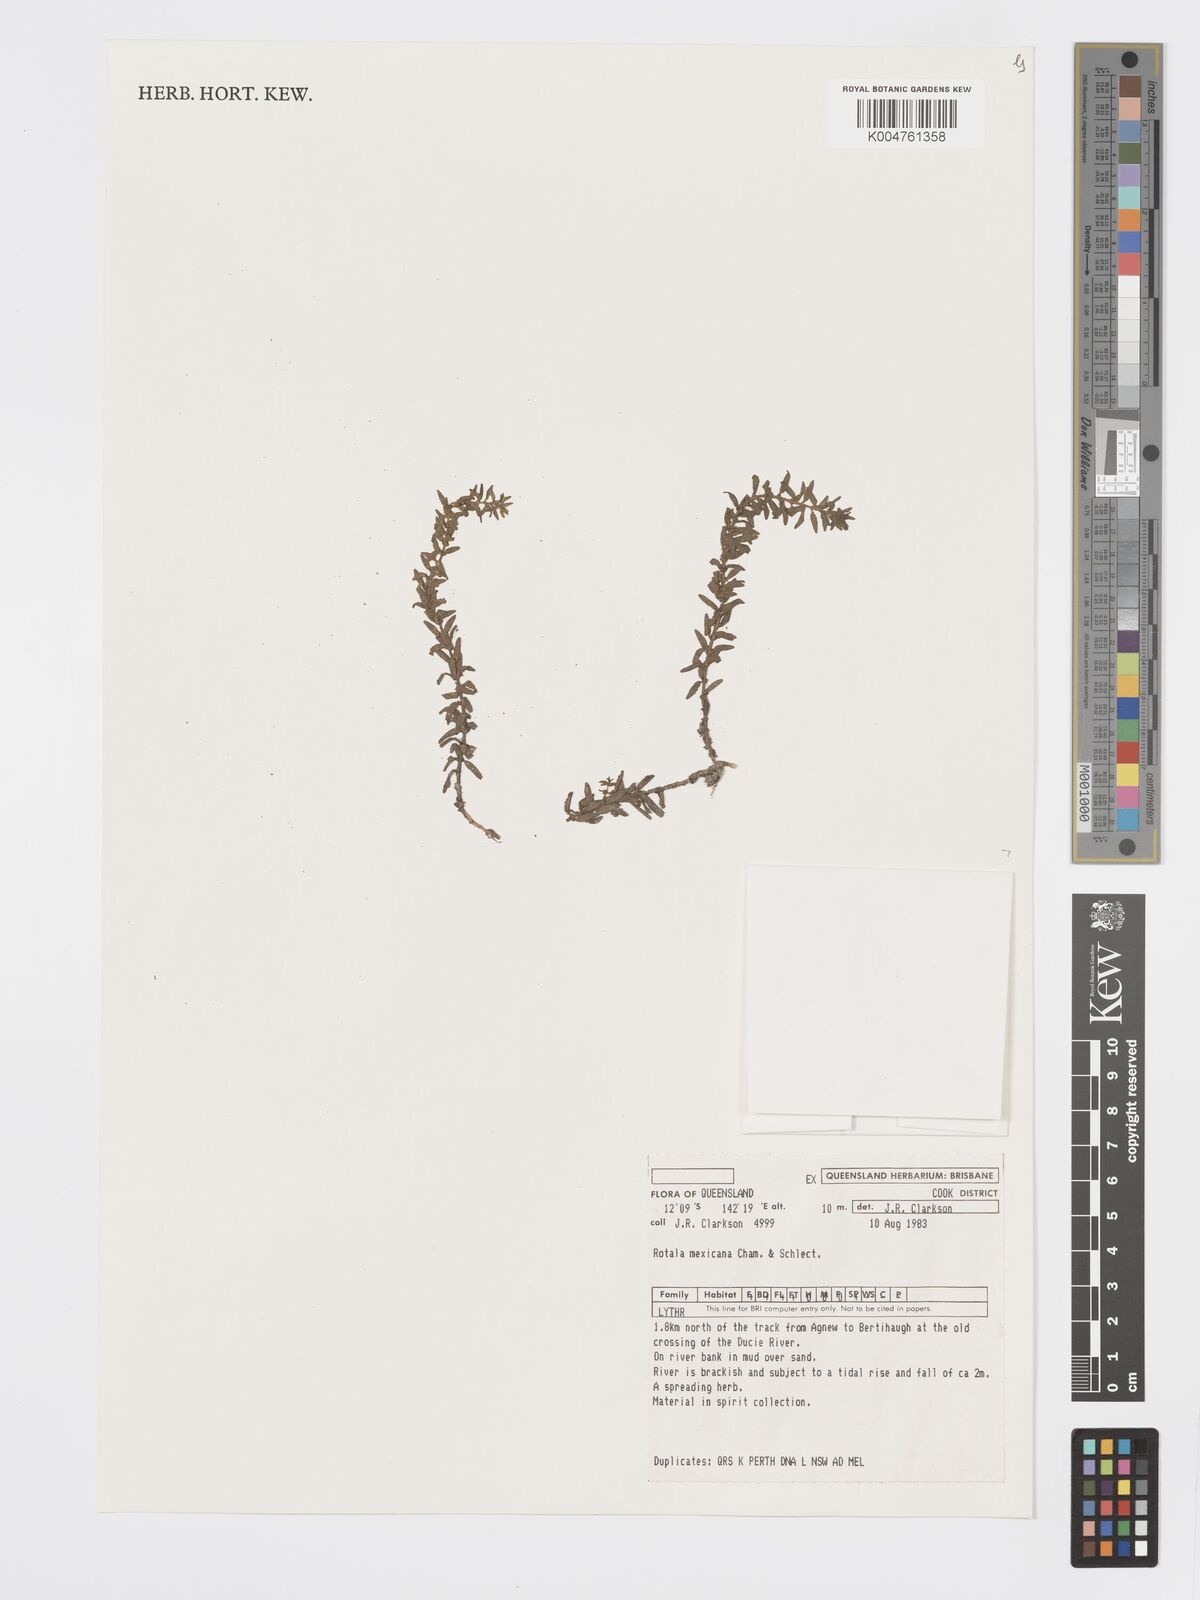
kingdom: Plantae
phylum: Tracheophyta
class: Magnoliopsida
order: Myrtales
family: Lythraceae
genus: Rotala
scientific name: Rotala mexicana
